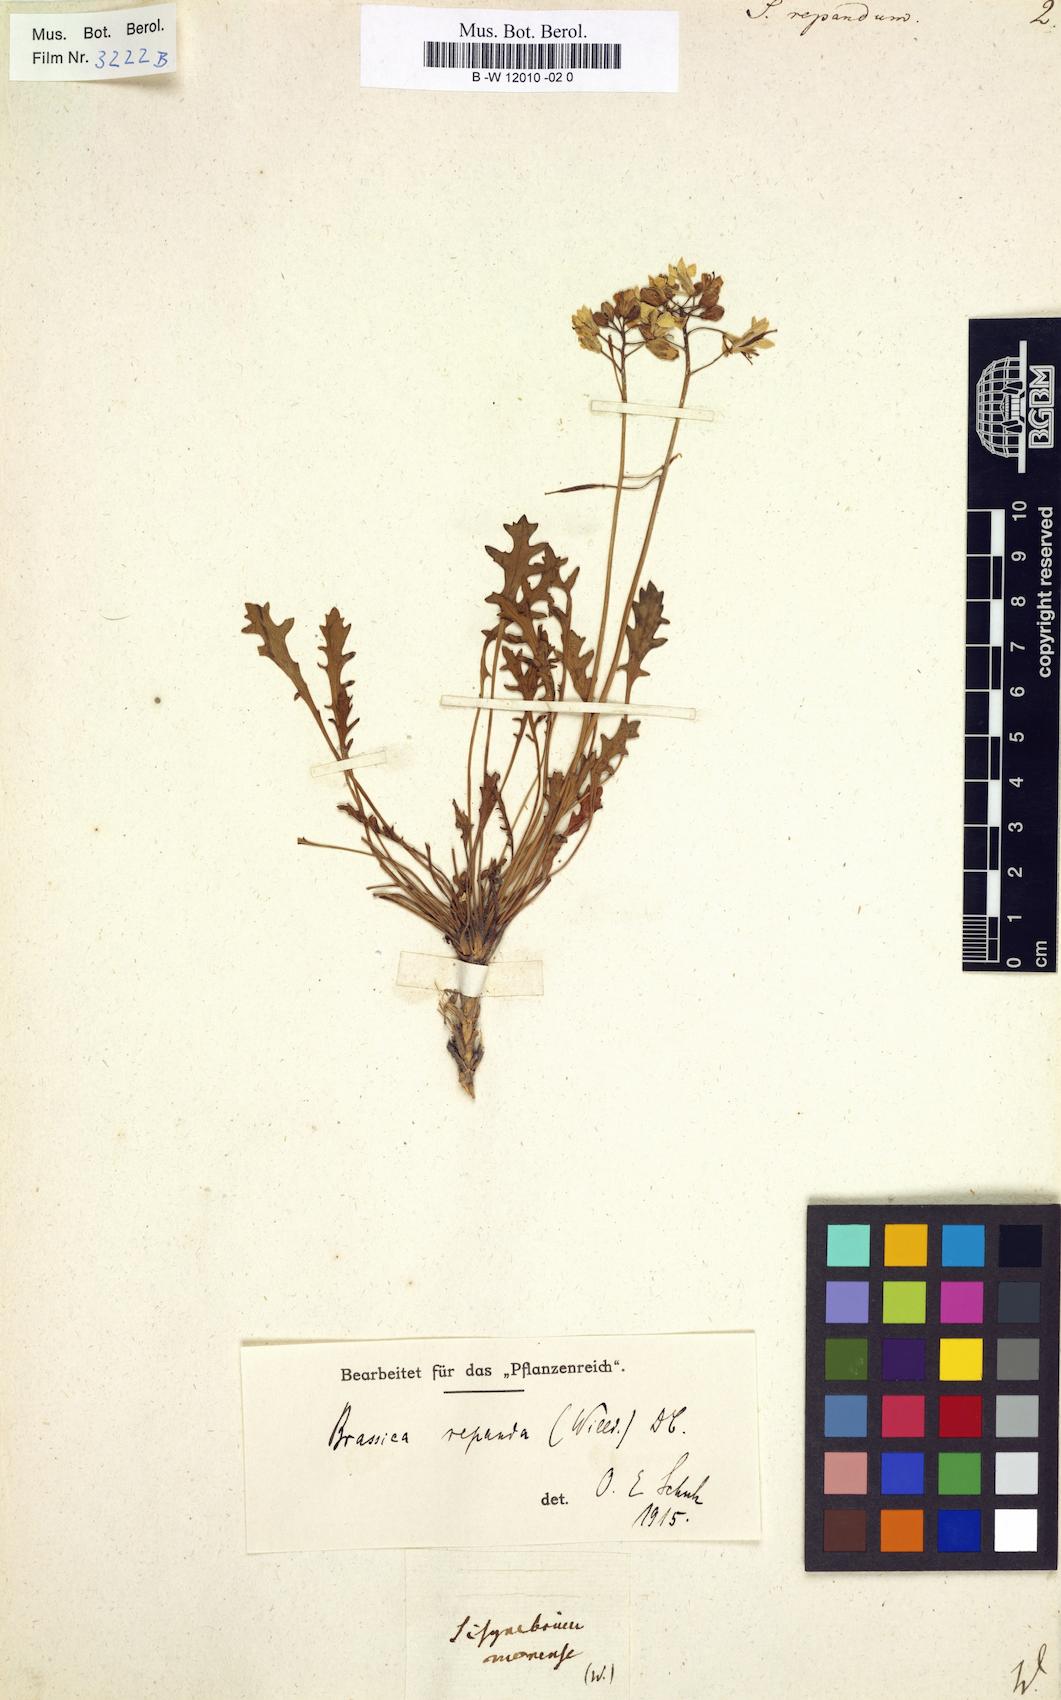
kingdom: Plantae
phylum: Tracheophyta
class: Magnoliopsida
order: Brassicales
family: Brassicaceae
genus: Sisymbrium
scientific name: Sisymbrium repandum
